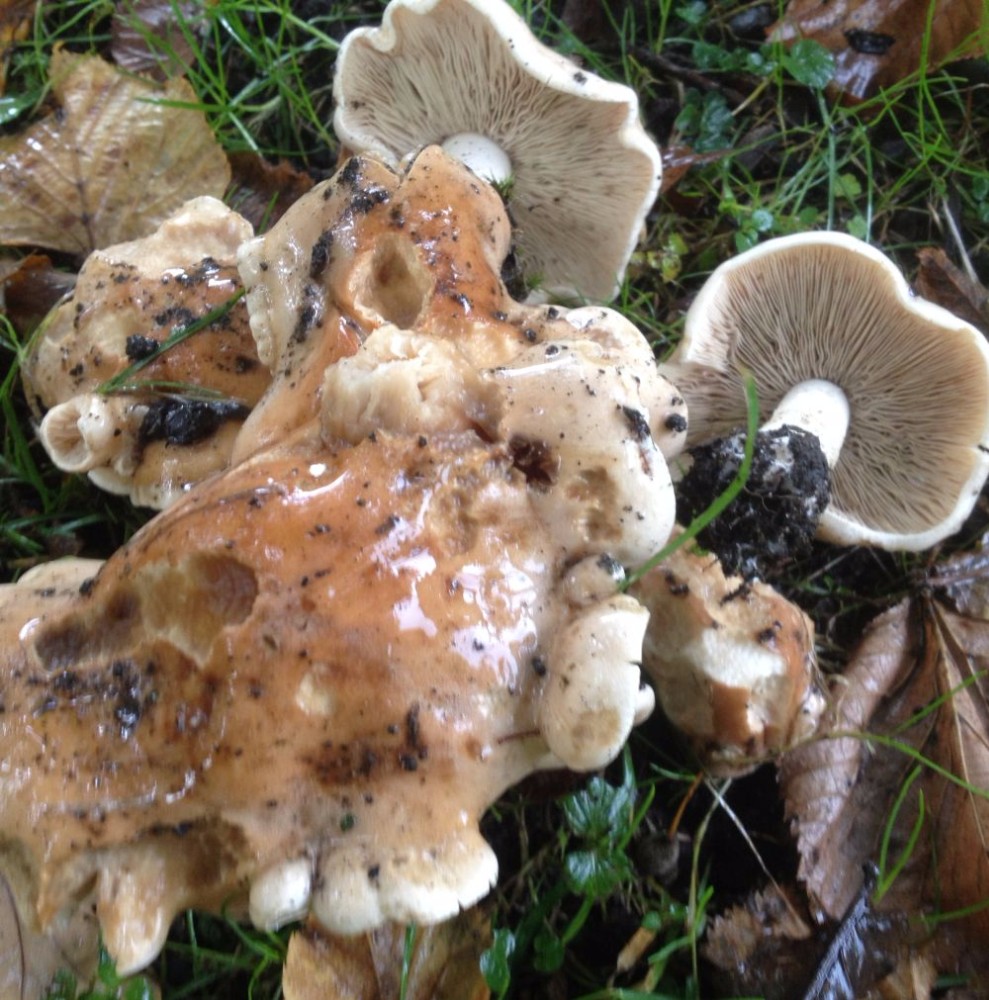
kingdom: Fungi
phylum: Basidiomycota
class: Agaricomycetes
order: Agaricales
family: Hymenogastraceae
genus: Hebeloma
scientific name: Hebeloma
